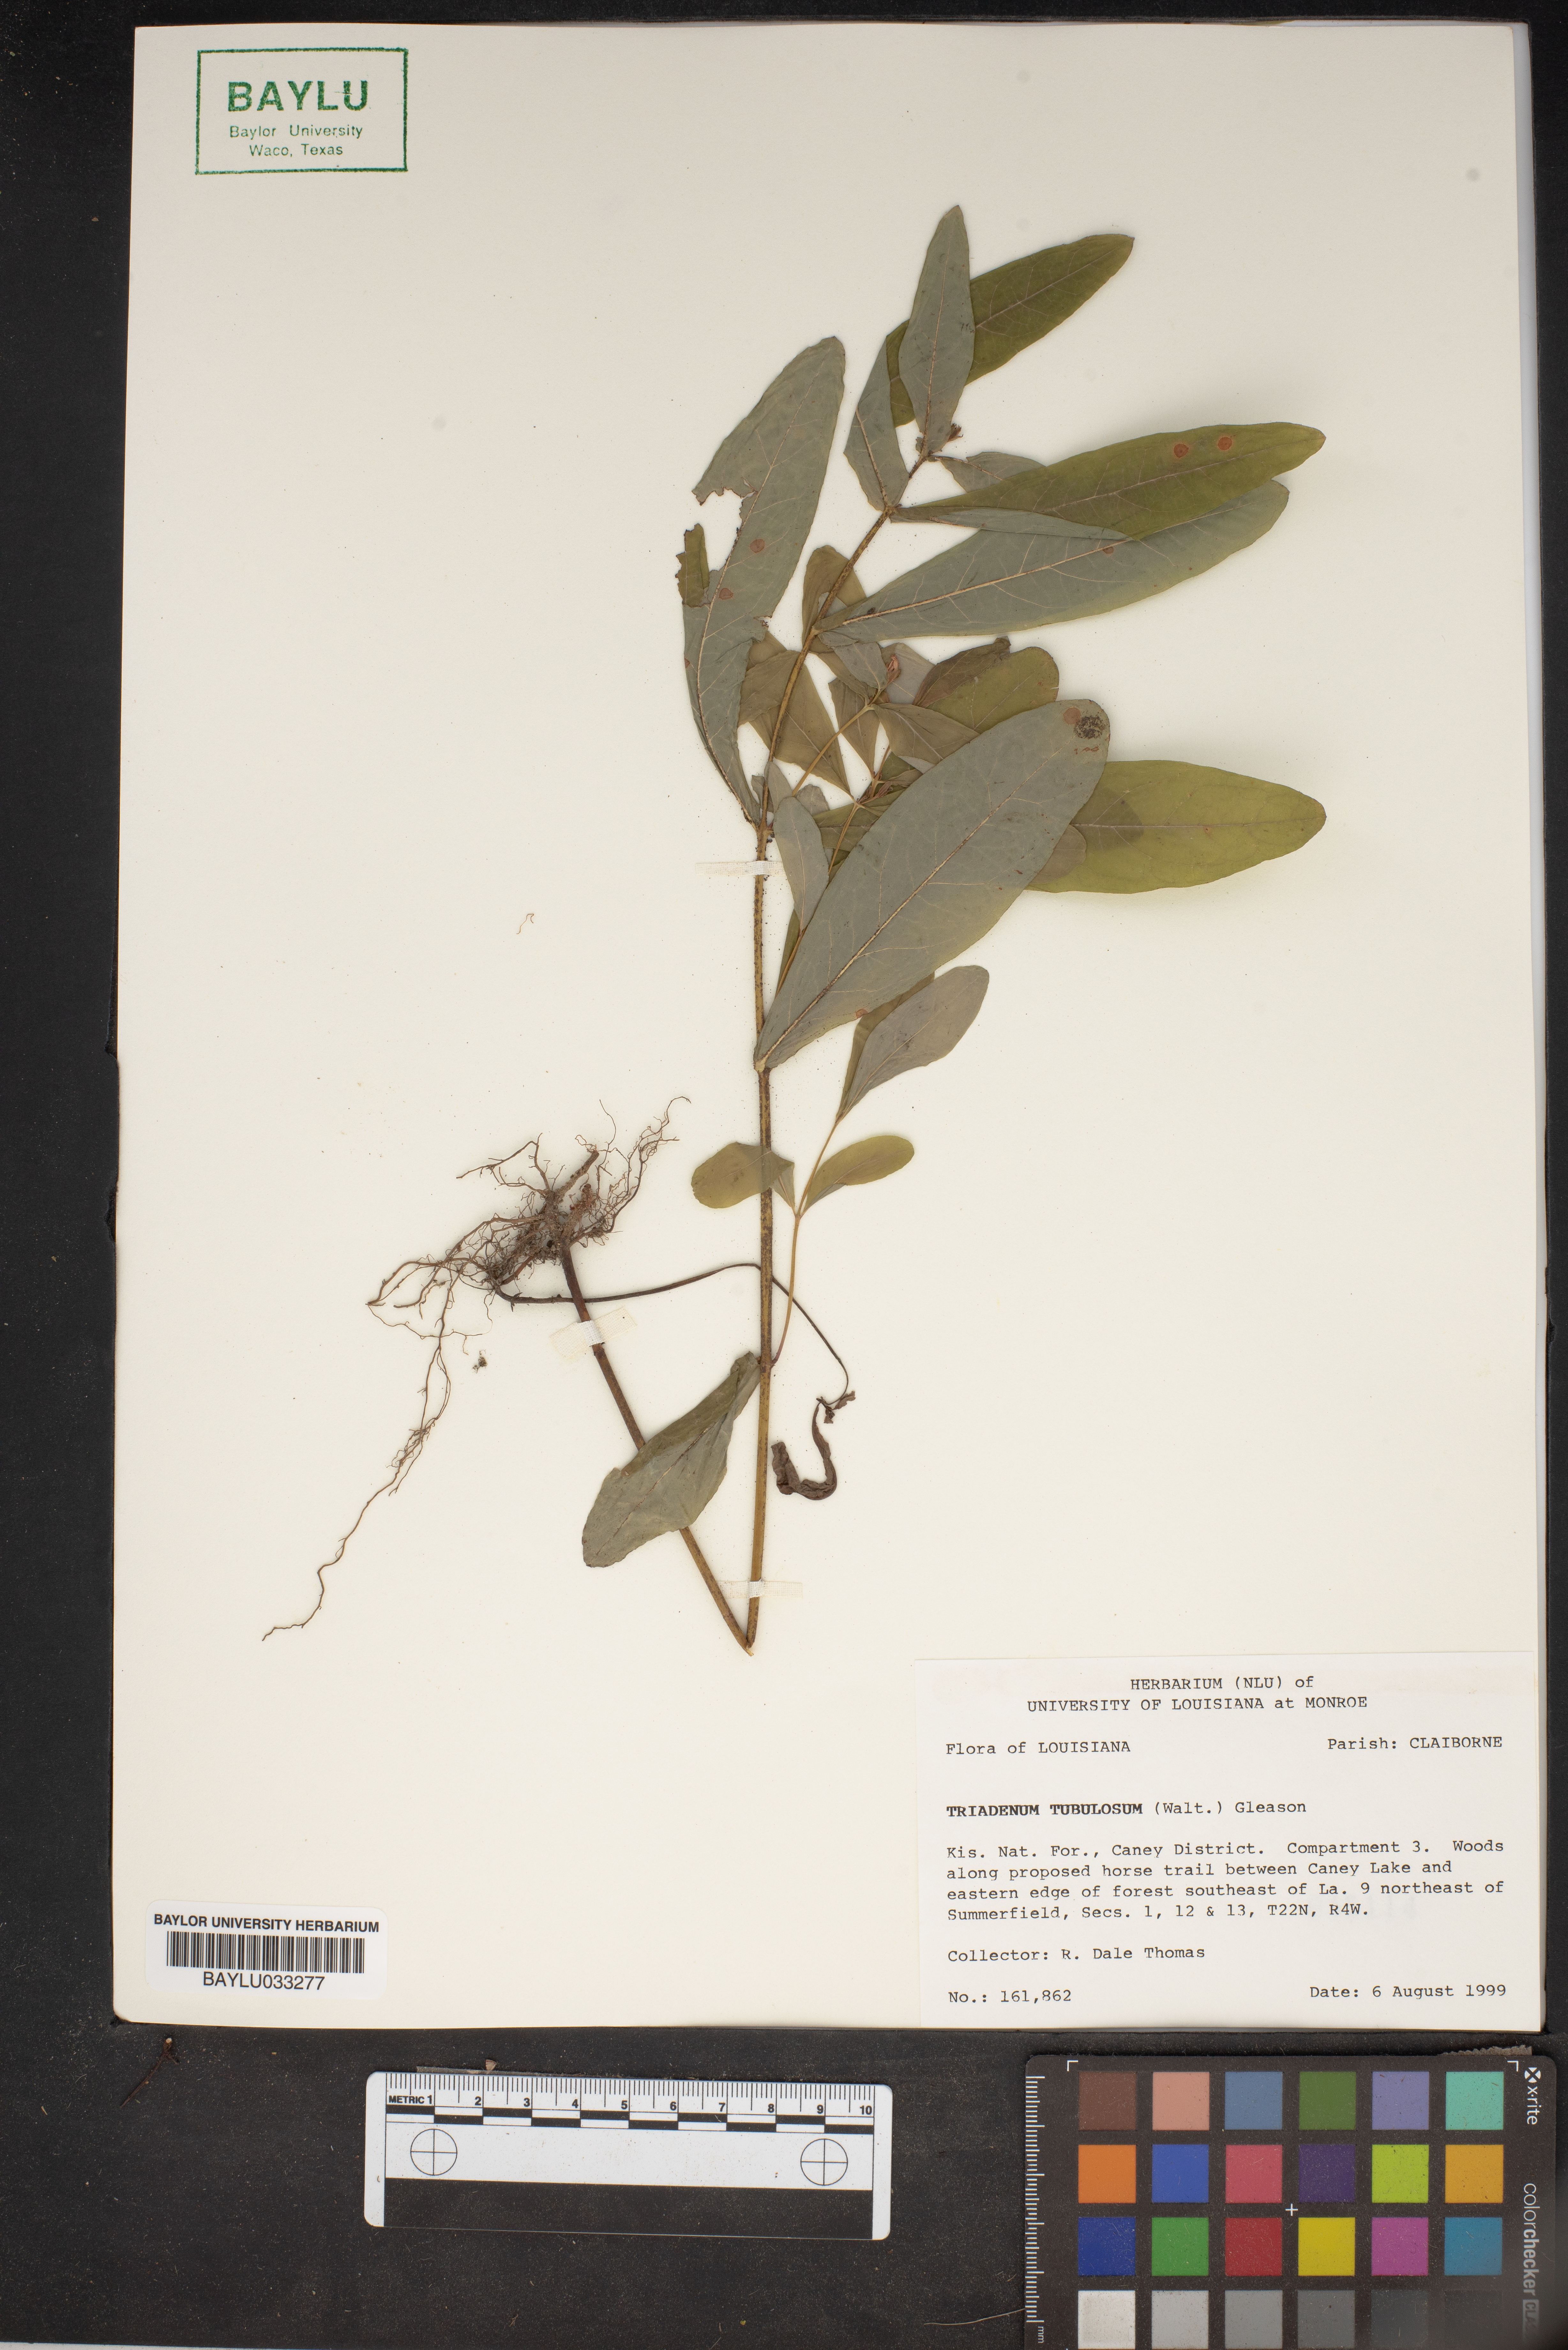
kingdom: Plantae
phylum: Tracheophyta
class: Magnoliopsida
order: Malpighiales
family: Hypericaceae
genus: Triadenum
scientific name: Triadenum tubulosum
